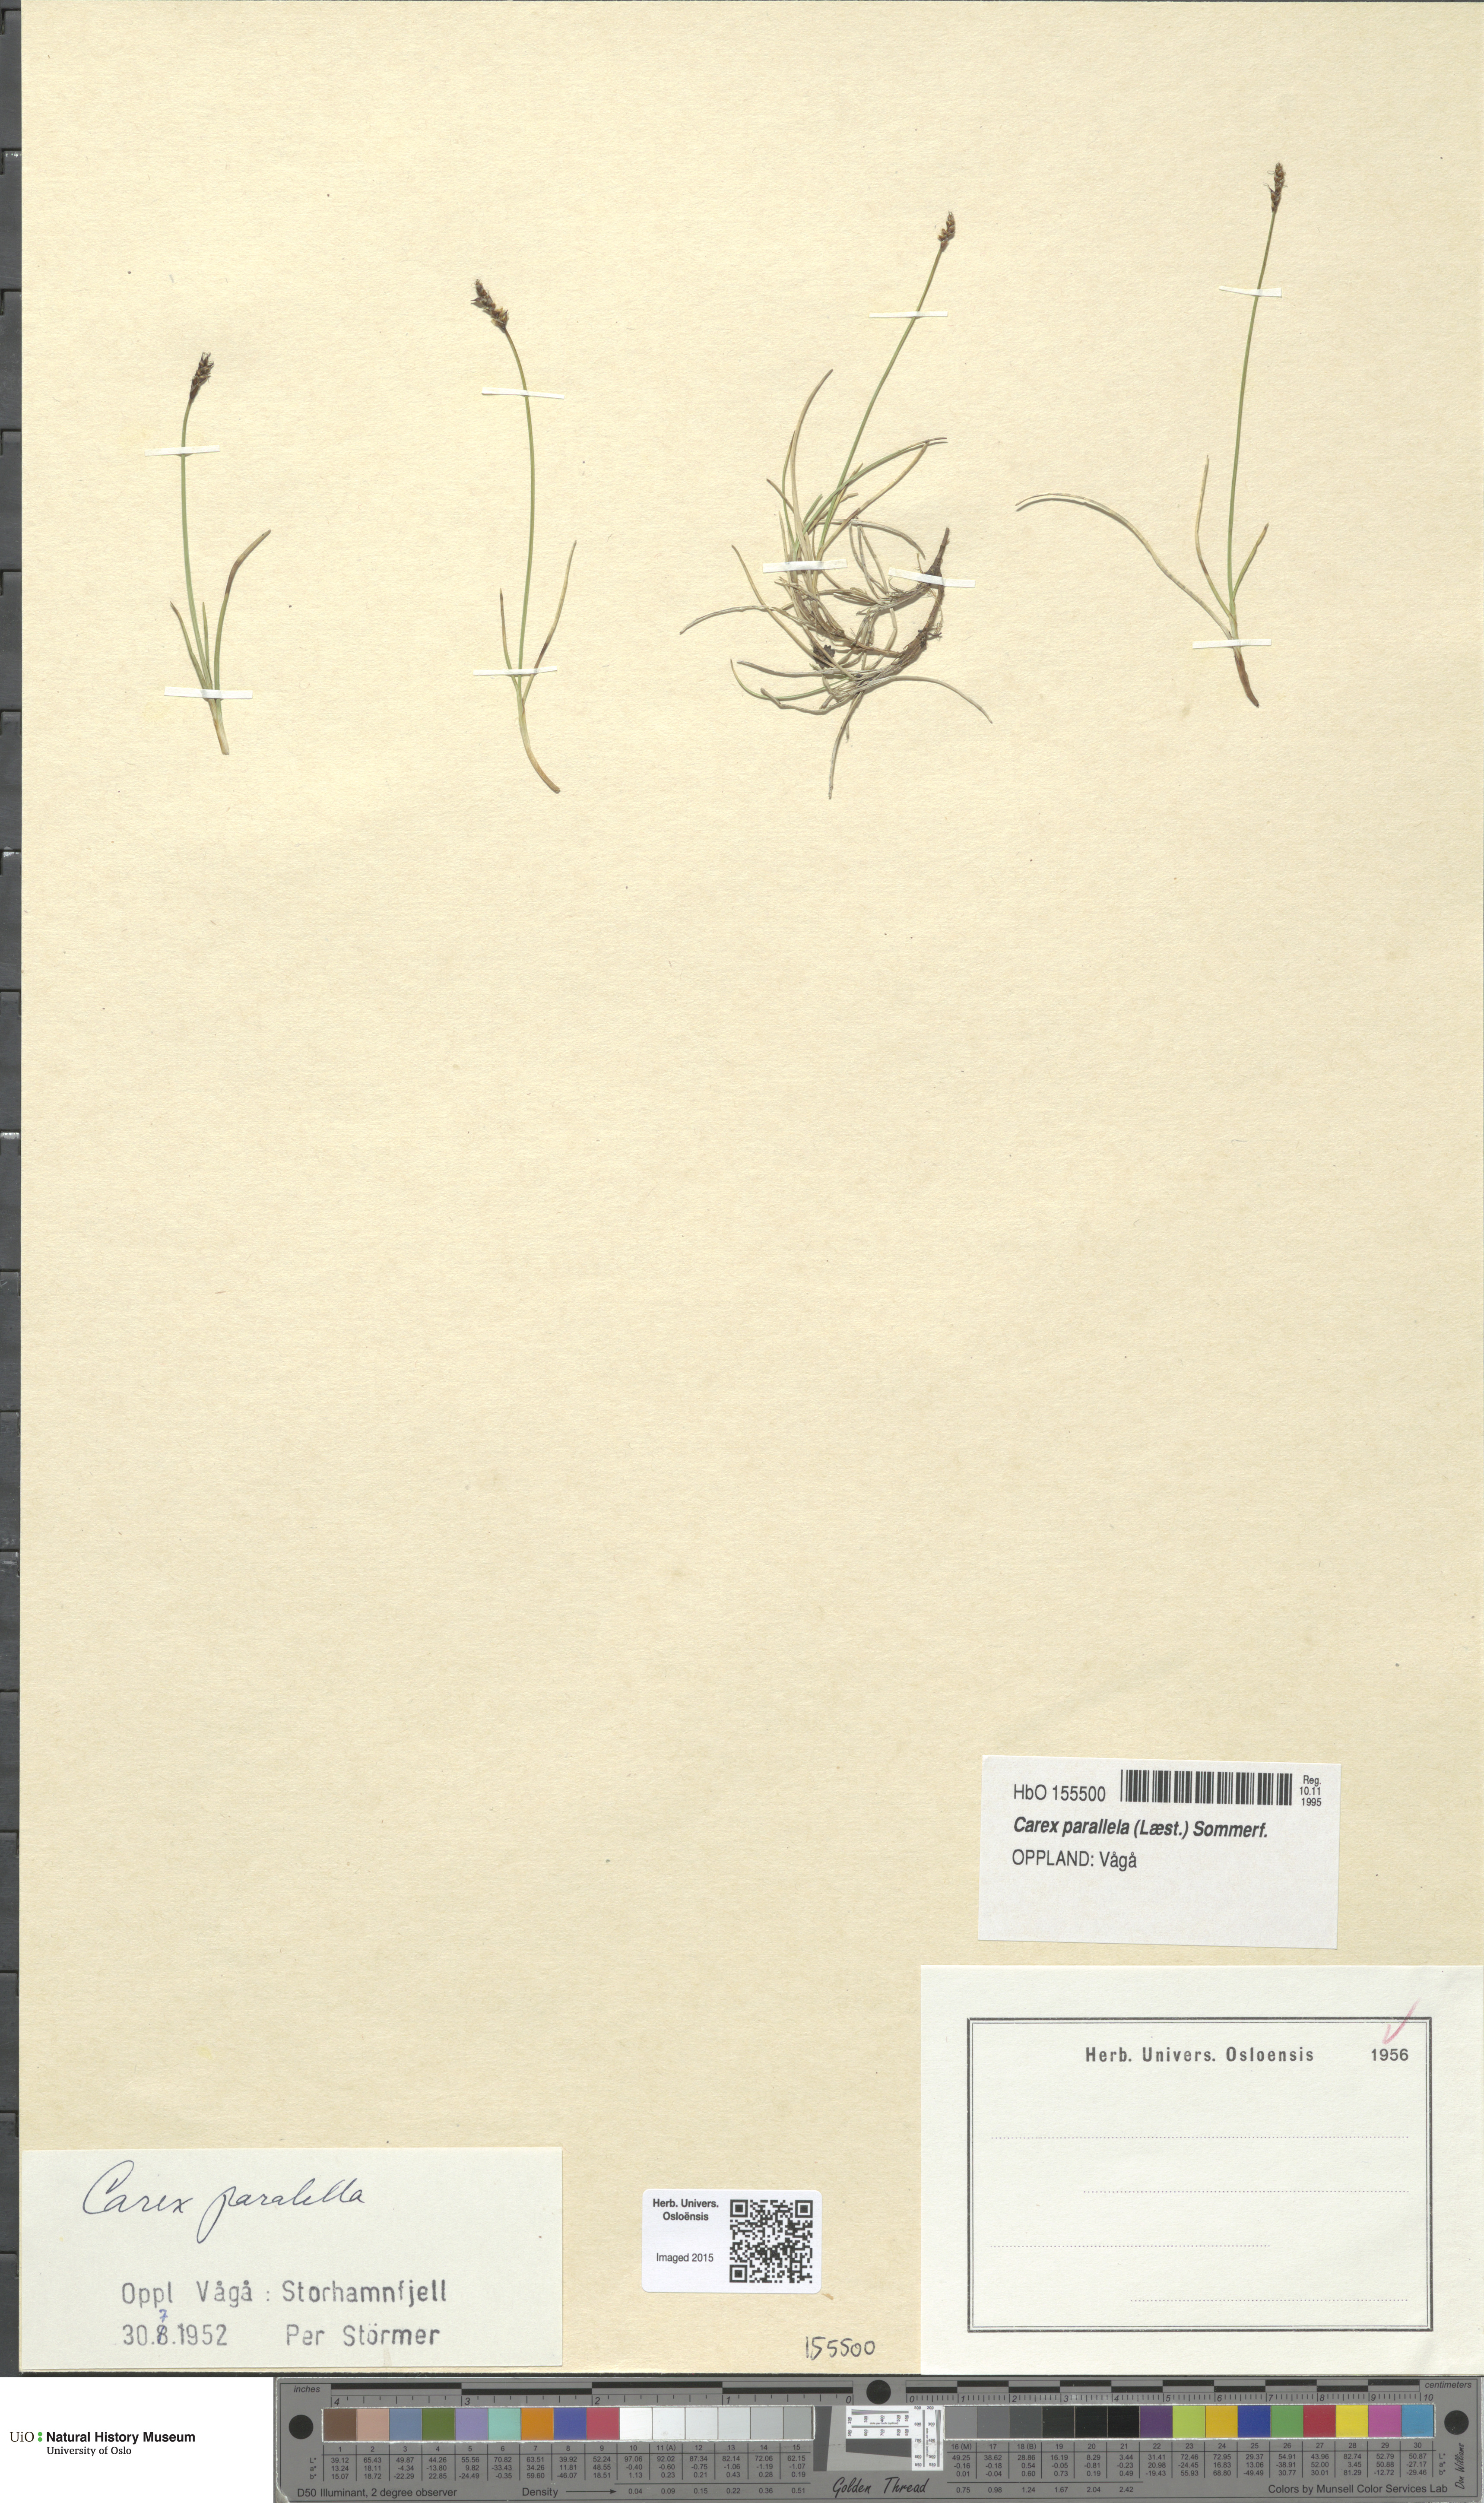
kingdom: Plantae
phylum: Tracheophyta
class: Liliopsida
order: Poales
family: Cyperaceae
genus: Carex
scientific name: Carex parallela
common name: Parallel sedge
